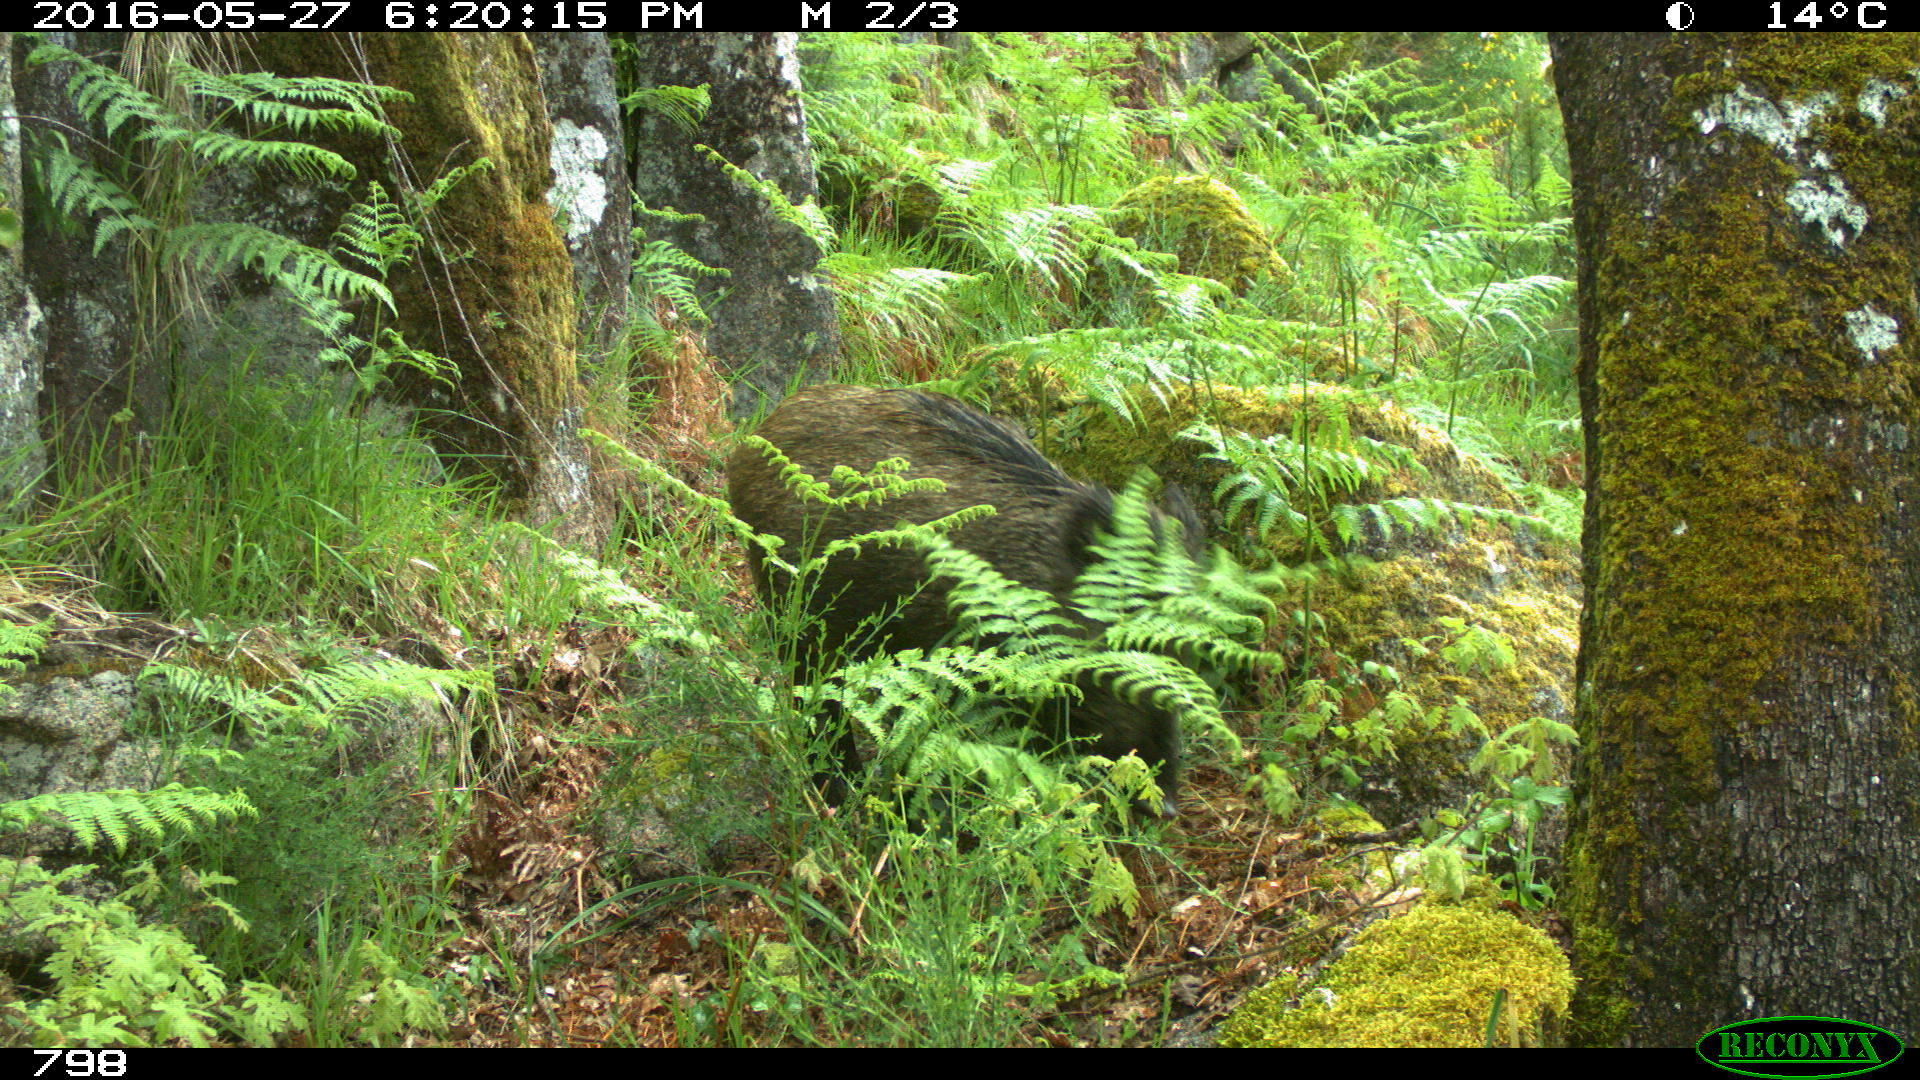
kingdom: Animalia
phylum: Chordata
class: Mammalia
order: Artiodactyla
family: Suidae
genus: Sus
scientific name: Sus scrofa
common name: Wild boar
